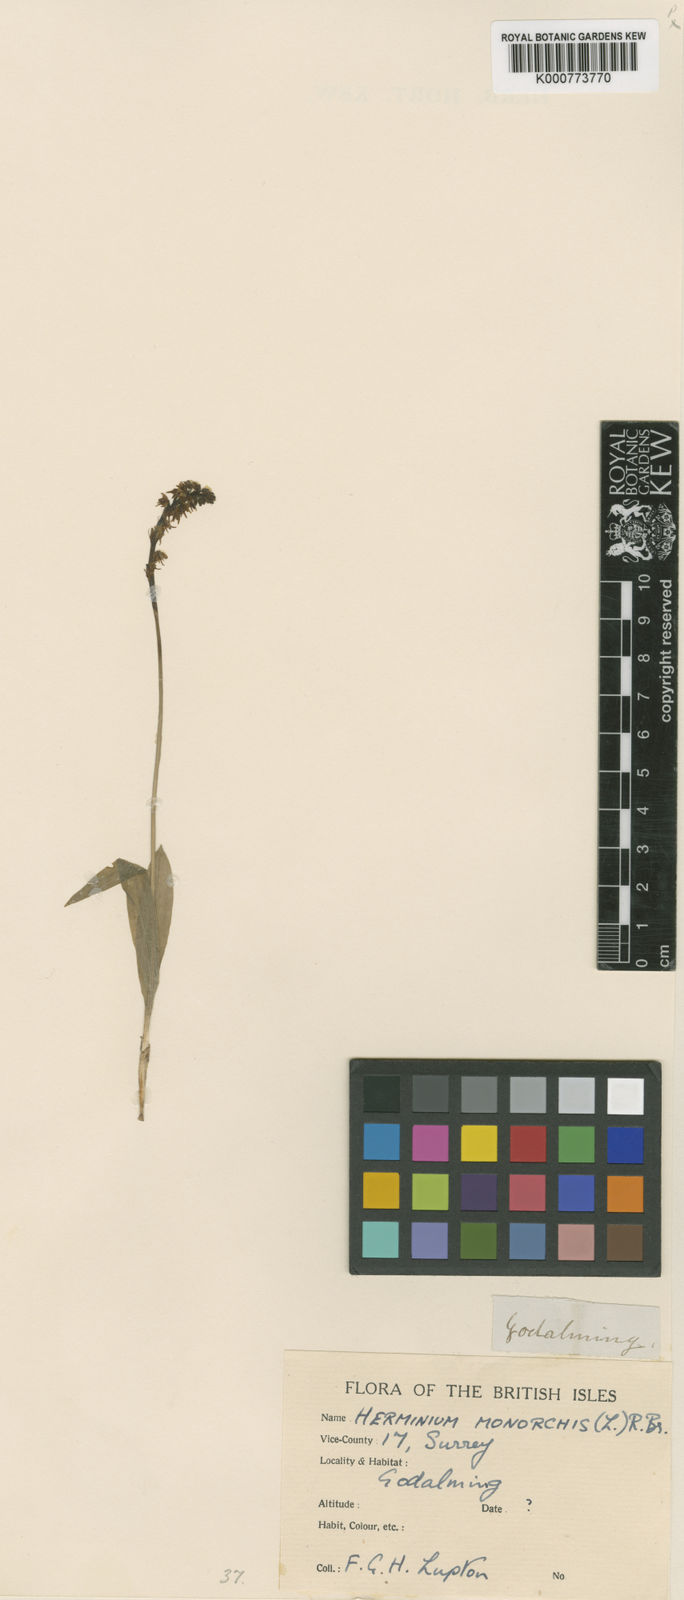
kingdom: Plantae
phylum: Tracheophyta
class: Liliopsida
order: Asparagales
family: Orchidaceae
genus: Herminium
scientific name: Herminium monorchis
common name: Musk orchid
